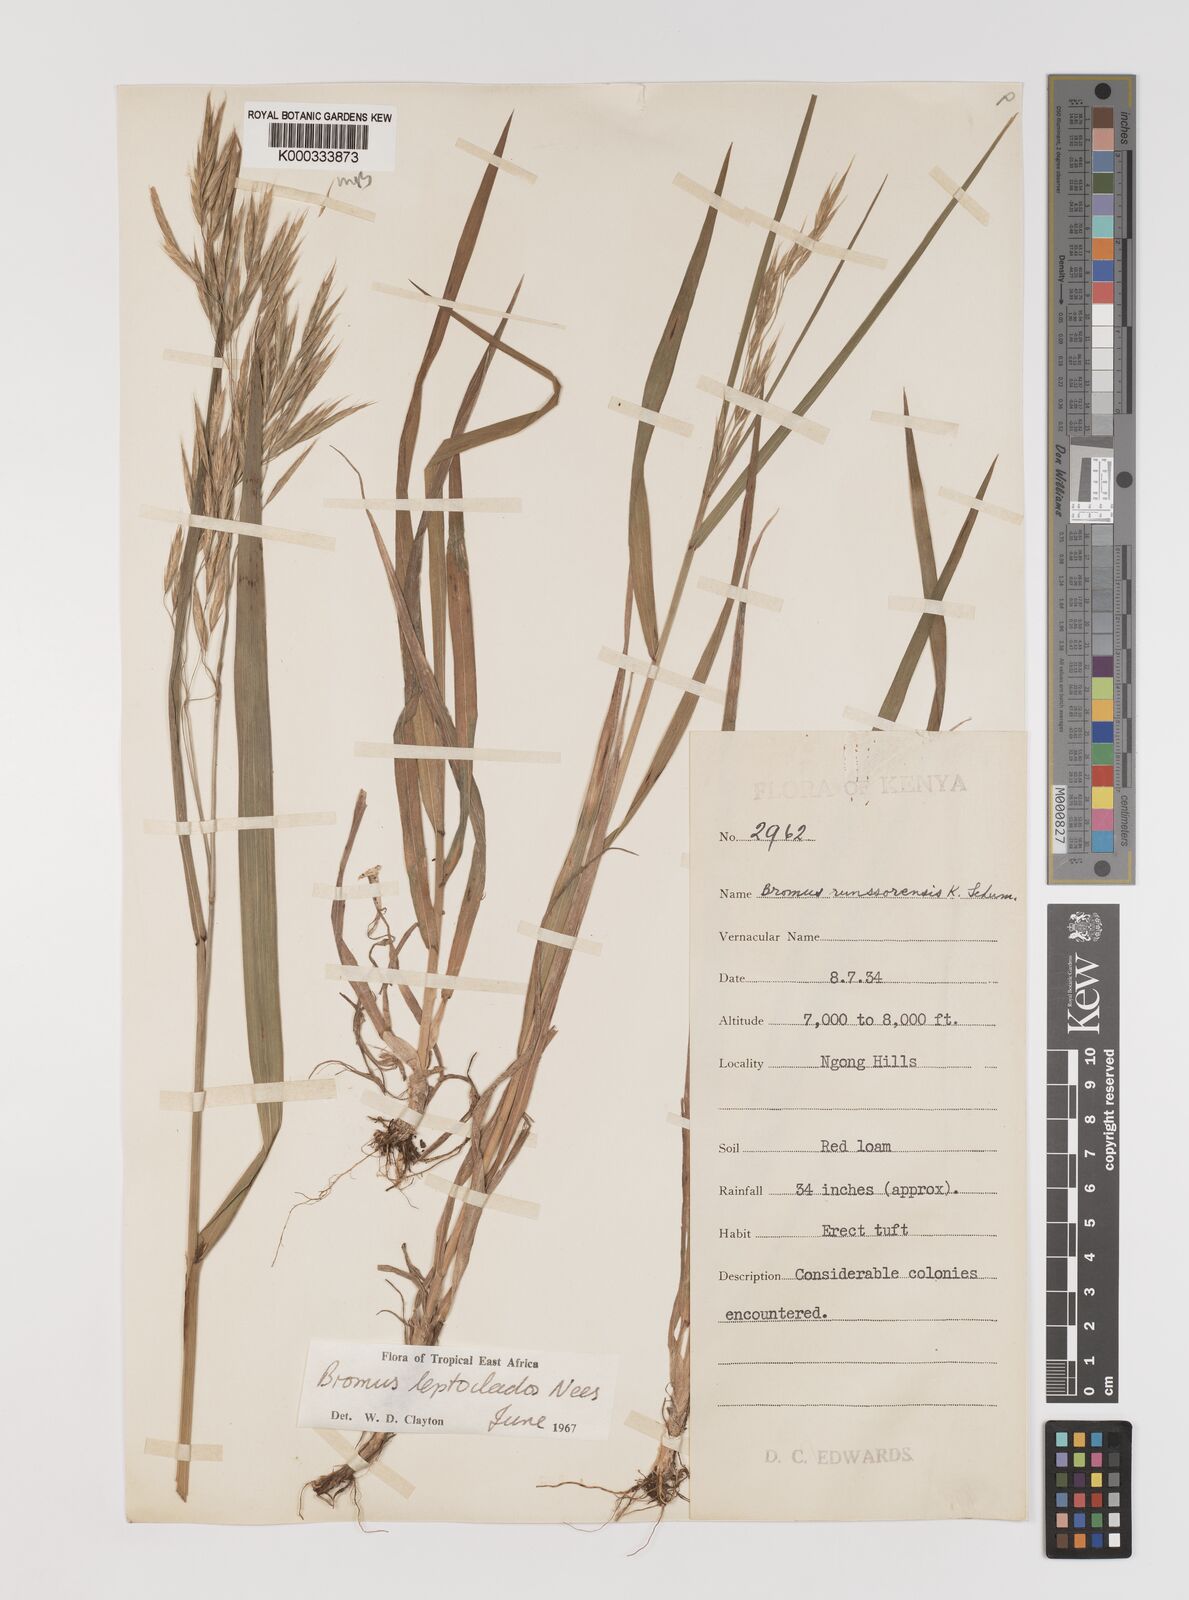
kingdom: Plantae
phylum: Tracheophyta
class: Liliopsida
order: Poales
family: Poaceae
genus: Bromus
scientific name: Bromus leptoclados
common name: Mountain bromegrass
